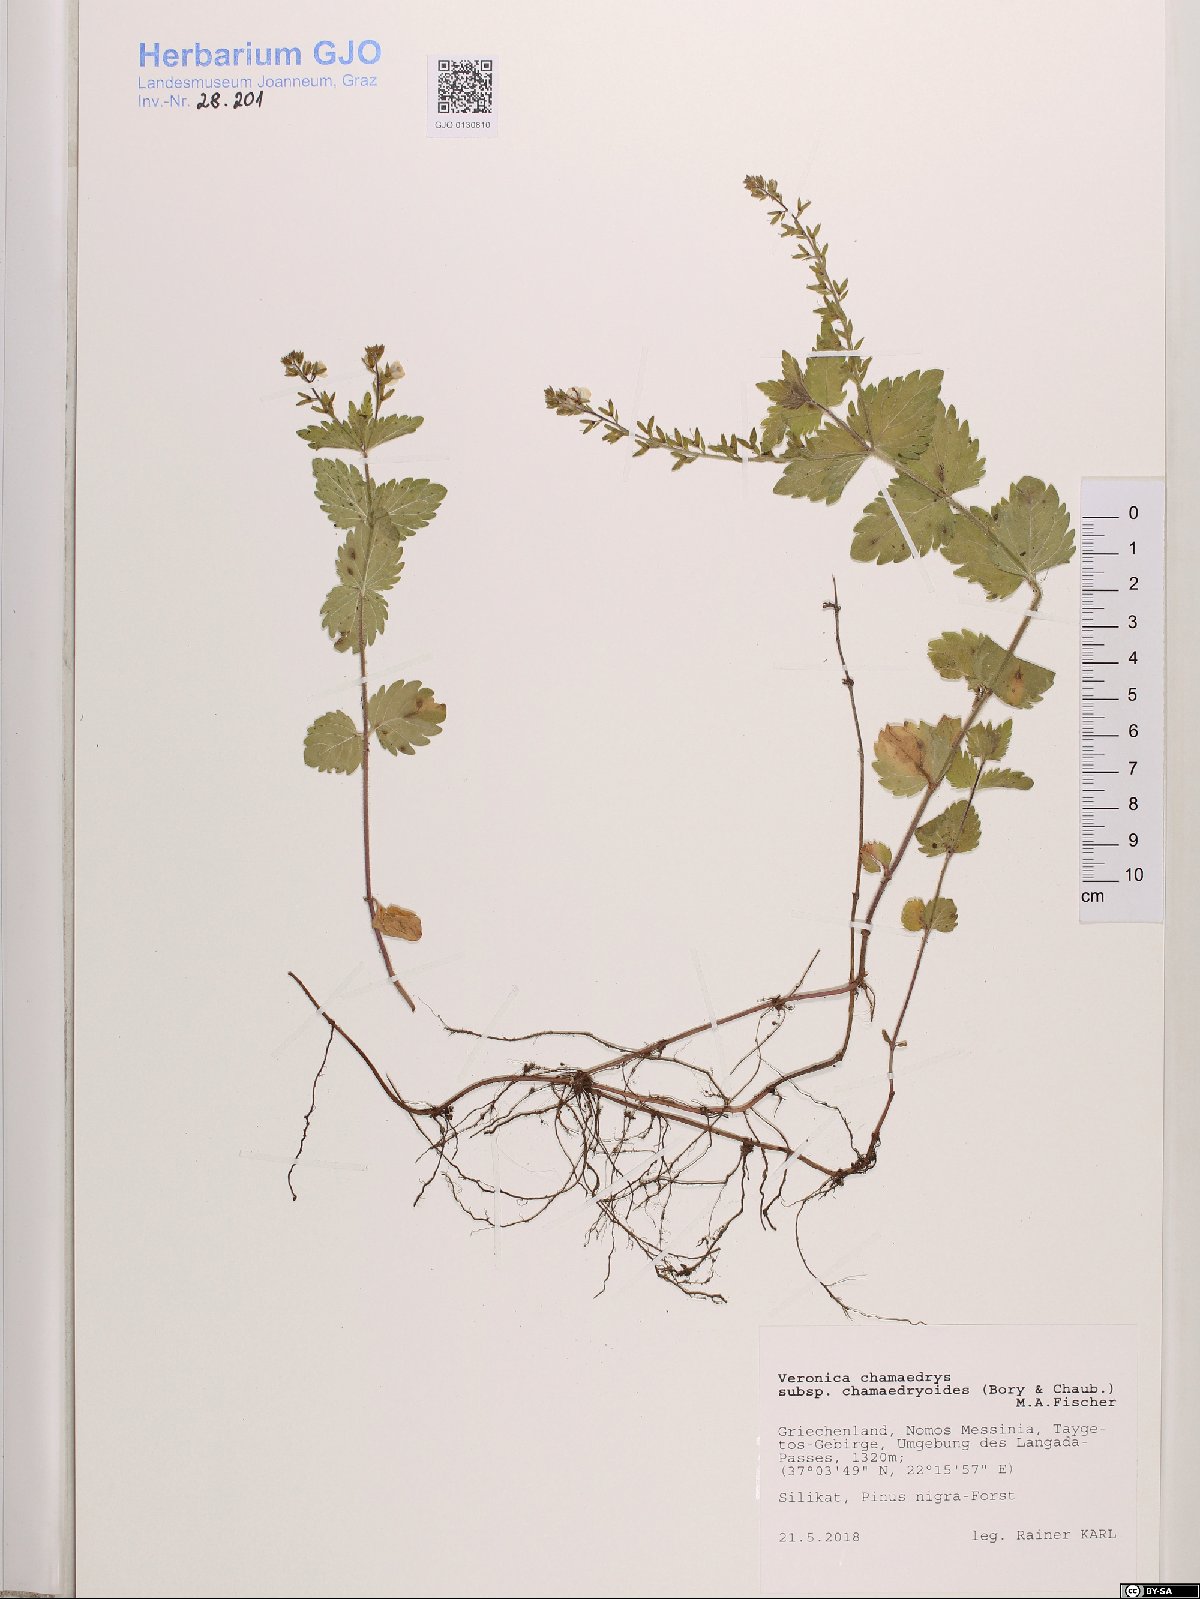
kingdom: Plantae
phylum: Tracheophyta
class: Magnoliopsida
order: Lamiales
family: Plantaginaceae
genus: Veronica
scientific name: Veronica chamaedrys
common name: Germander speedwell
